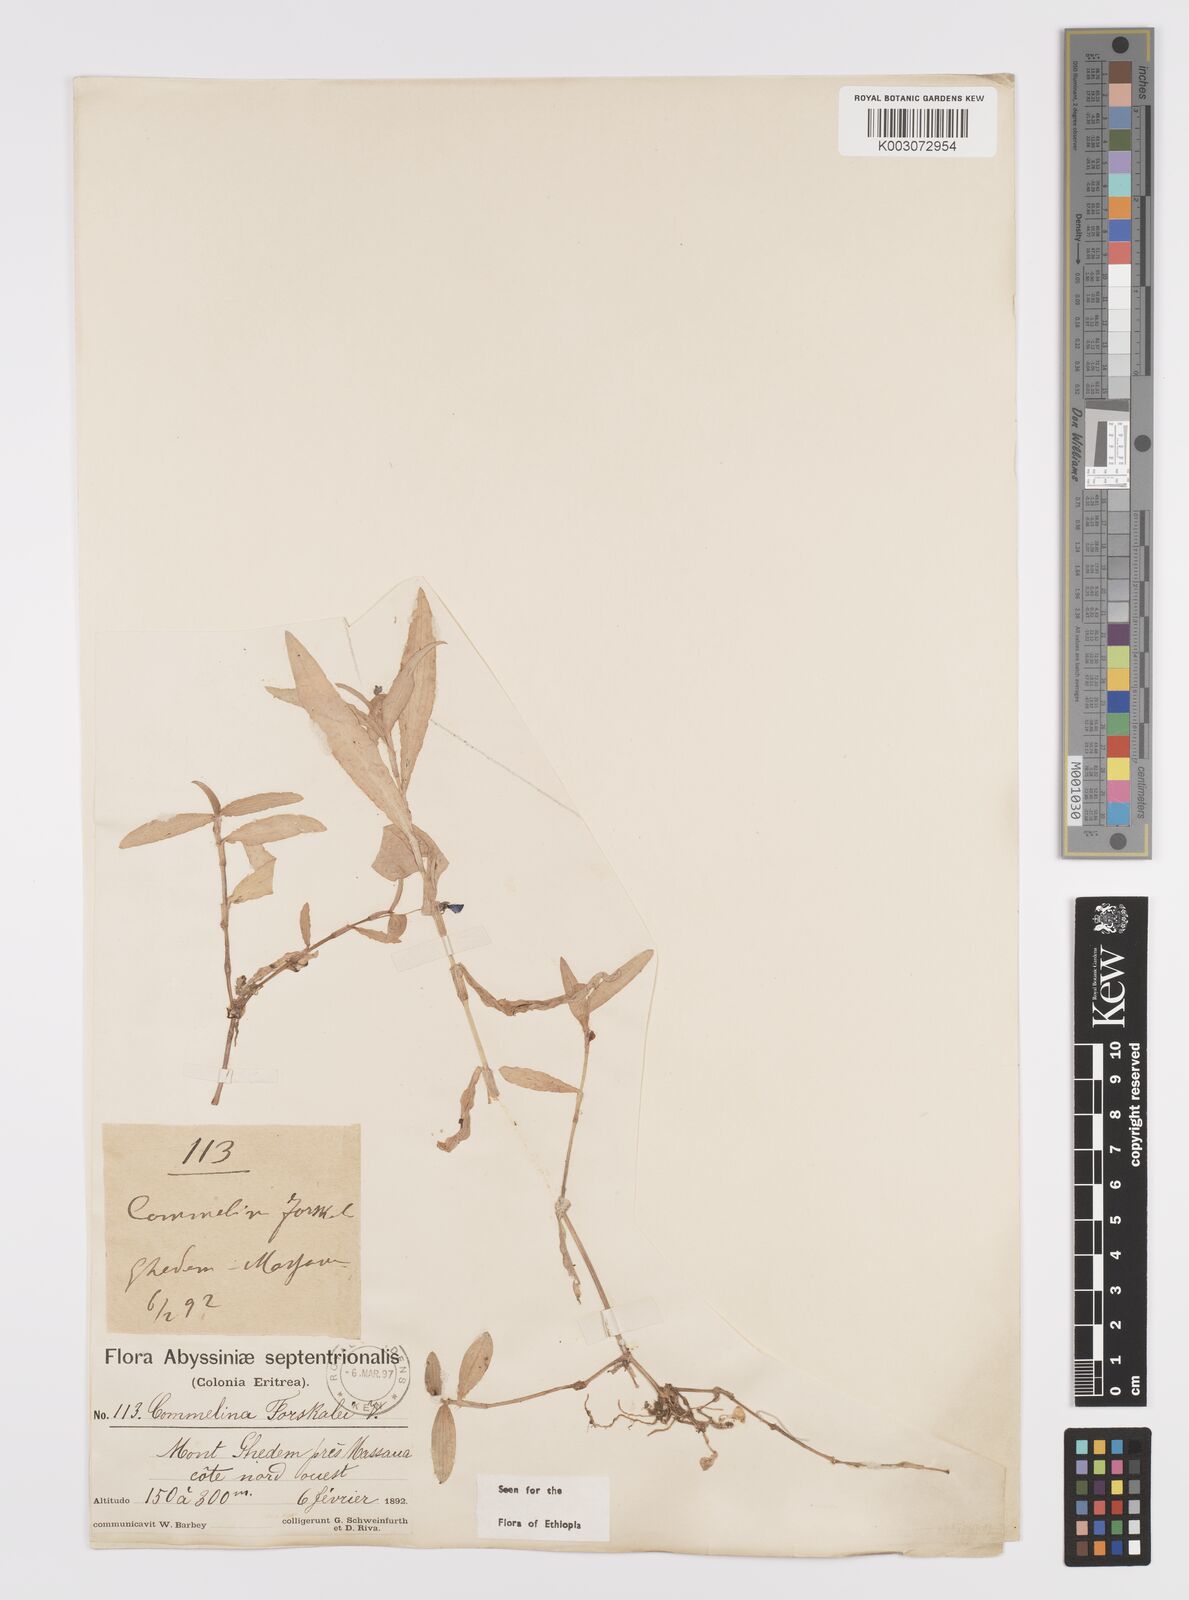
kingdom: Plantae
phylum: Tracheophyta
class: Liliopsida
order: Commelinales
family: Commelinaceae
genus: Commelina
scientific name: Commelina forskaolii
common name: Rat's ear
